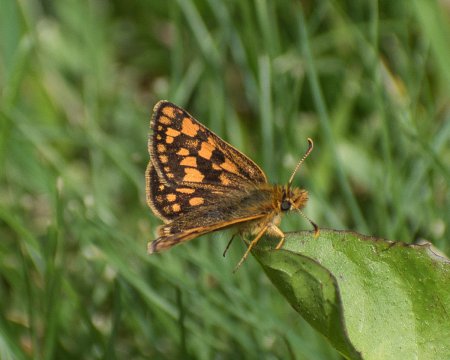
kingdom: Animalia
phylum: Arthropoda
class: Insecta
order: Lepidoptera
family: Hesperiidae
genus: Carterocephalus
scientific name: Carterocephalus skada
